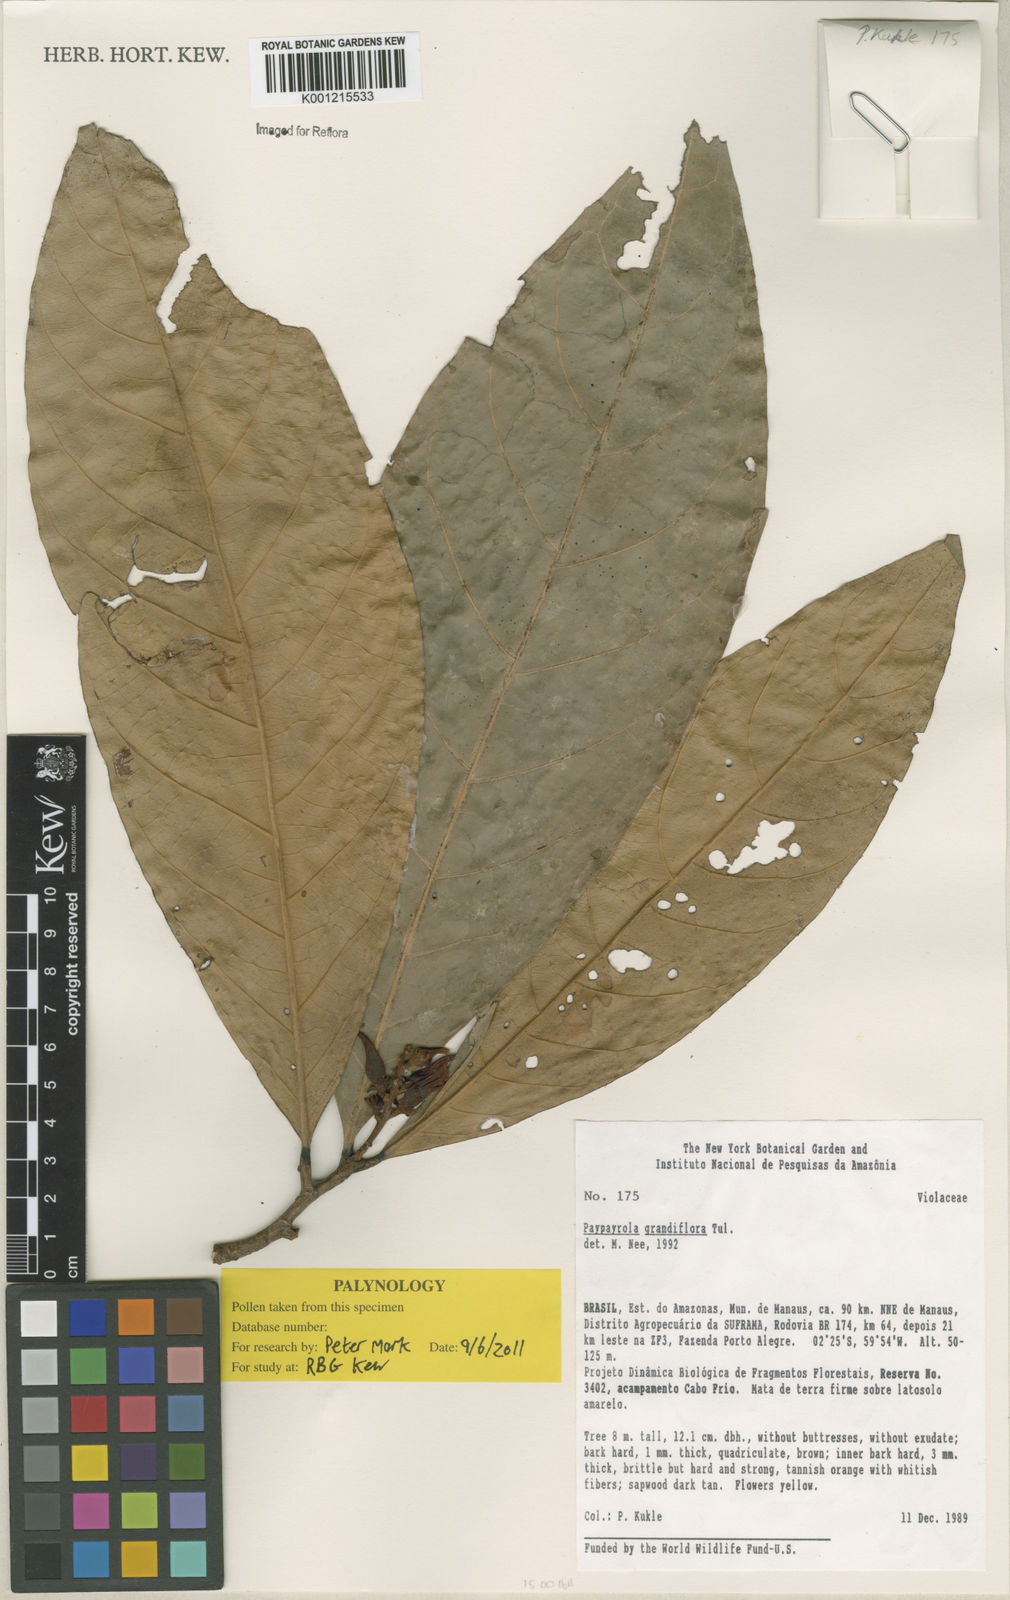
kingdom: Plantae
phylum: Tracheophyta
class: Magnoliopsida
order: Malpighiales
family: Violaceae
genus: Paypayrola
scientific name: Paypayrola grandiflora
